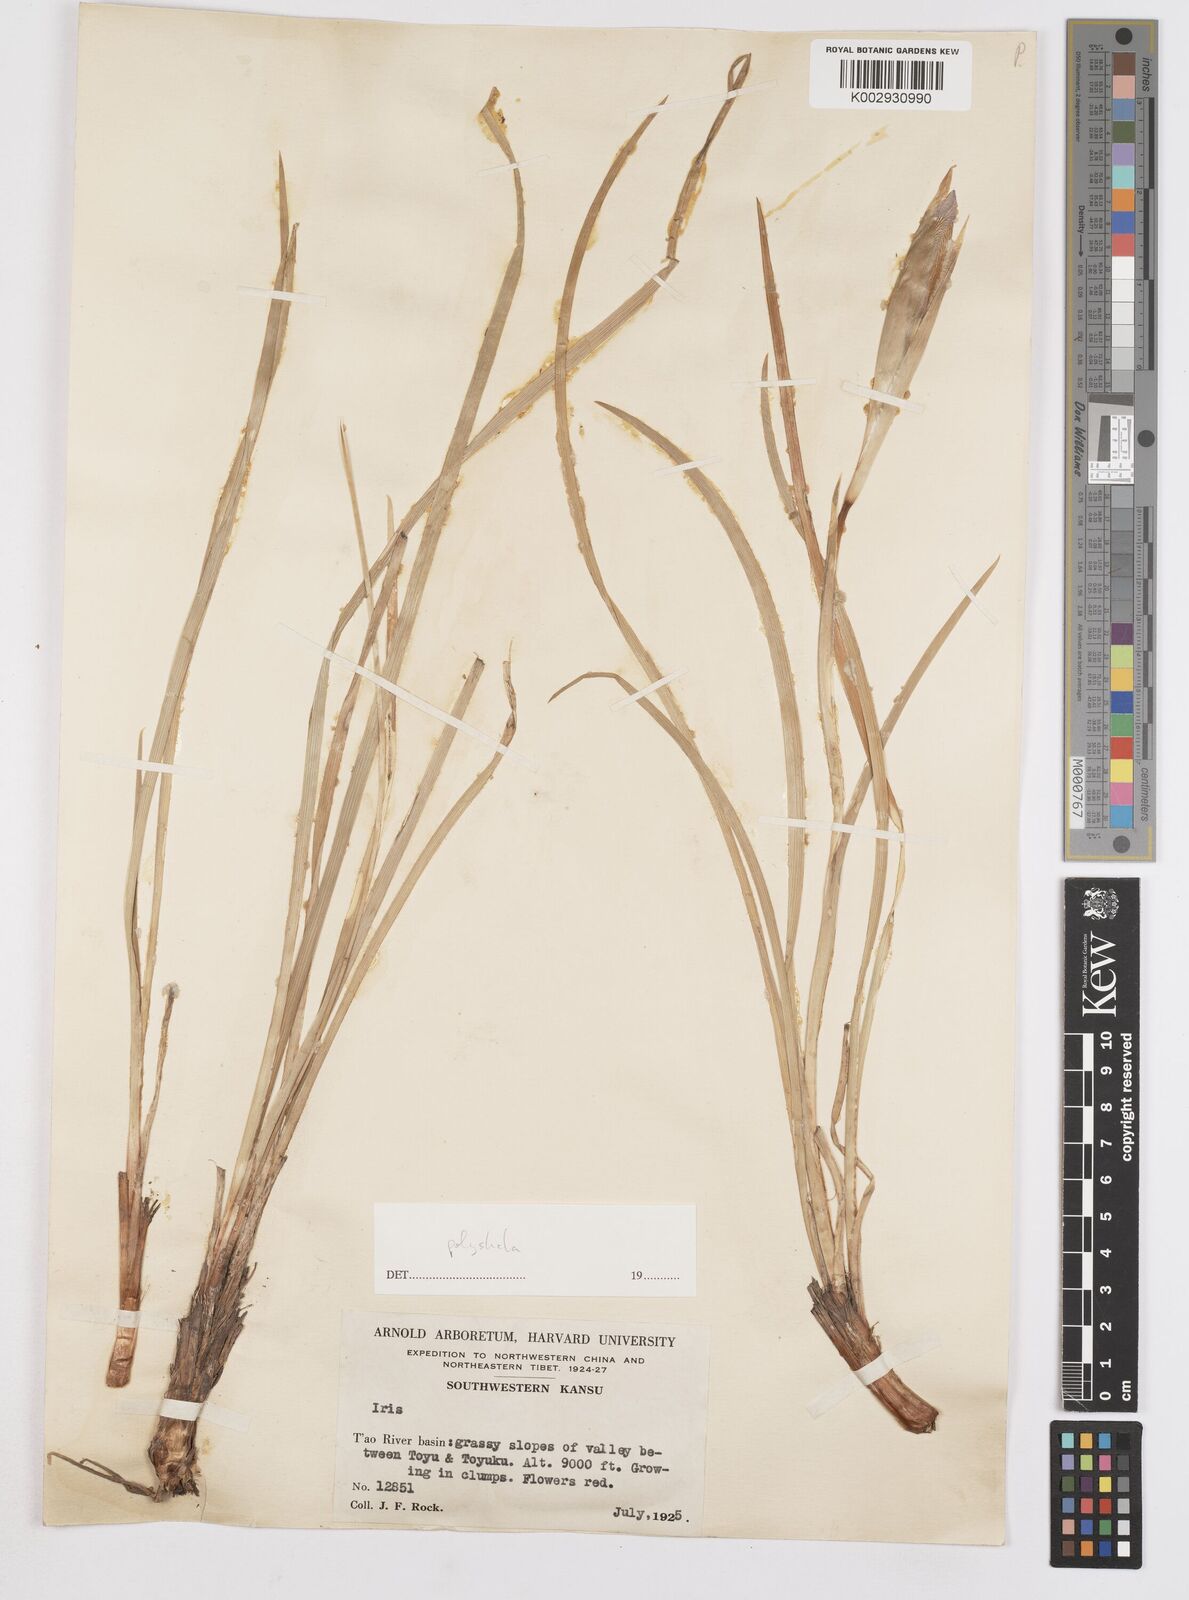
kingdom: Plantae
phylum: Tracheophyta
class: Liliopsida
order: Asparagales
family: Iridaceae
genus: Iris
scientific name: Iris farreri
